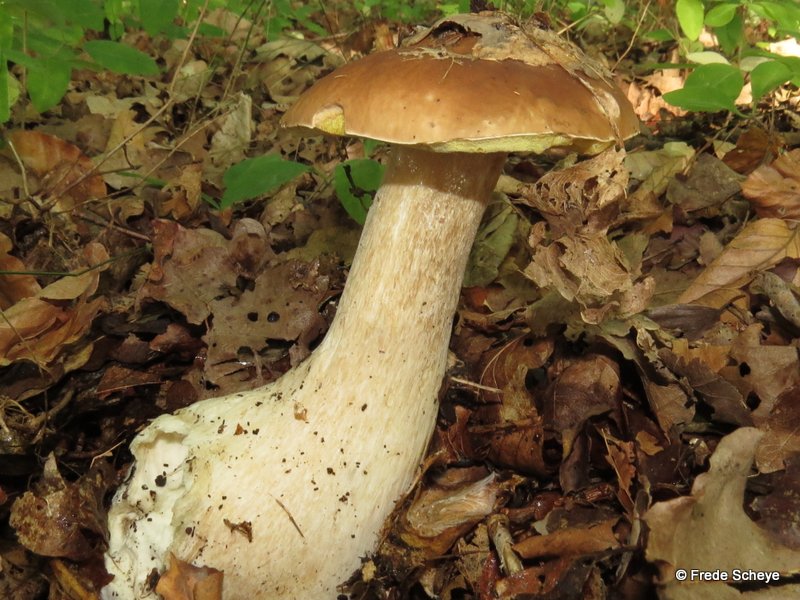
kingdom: Fungi
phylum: Basidiomycota
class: Agaricomycetes
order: Boletales
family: Boletaceae
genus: Boletus
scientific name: Boletus edulis
